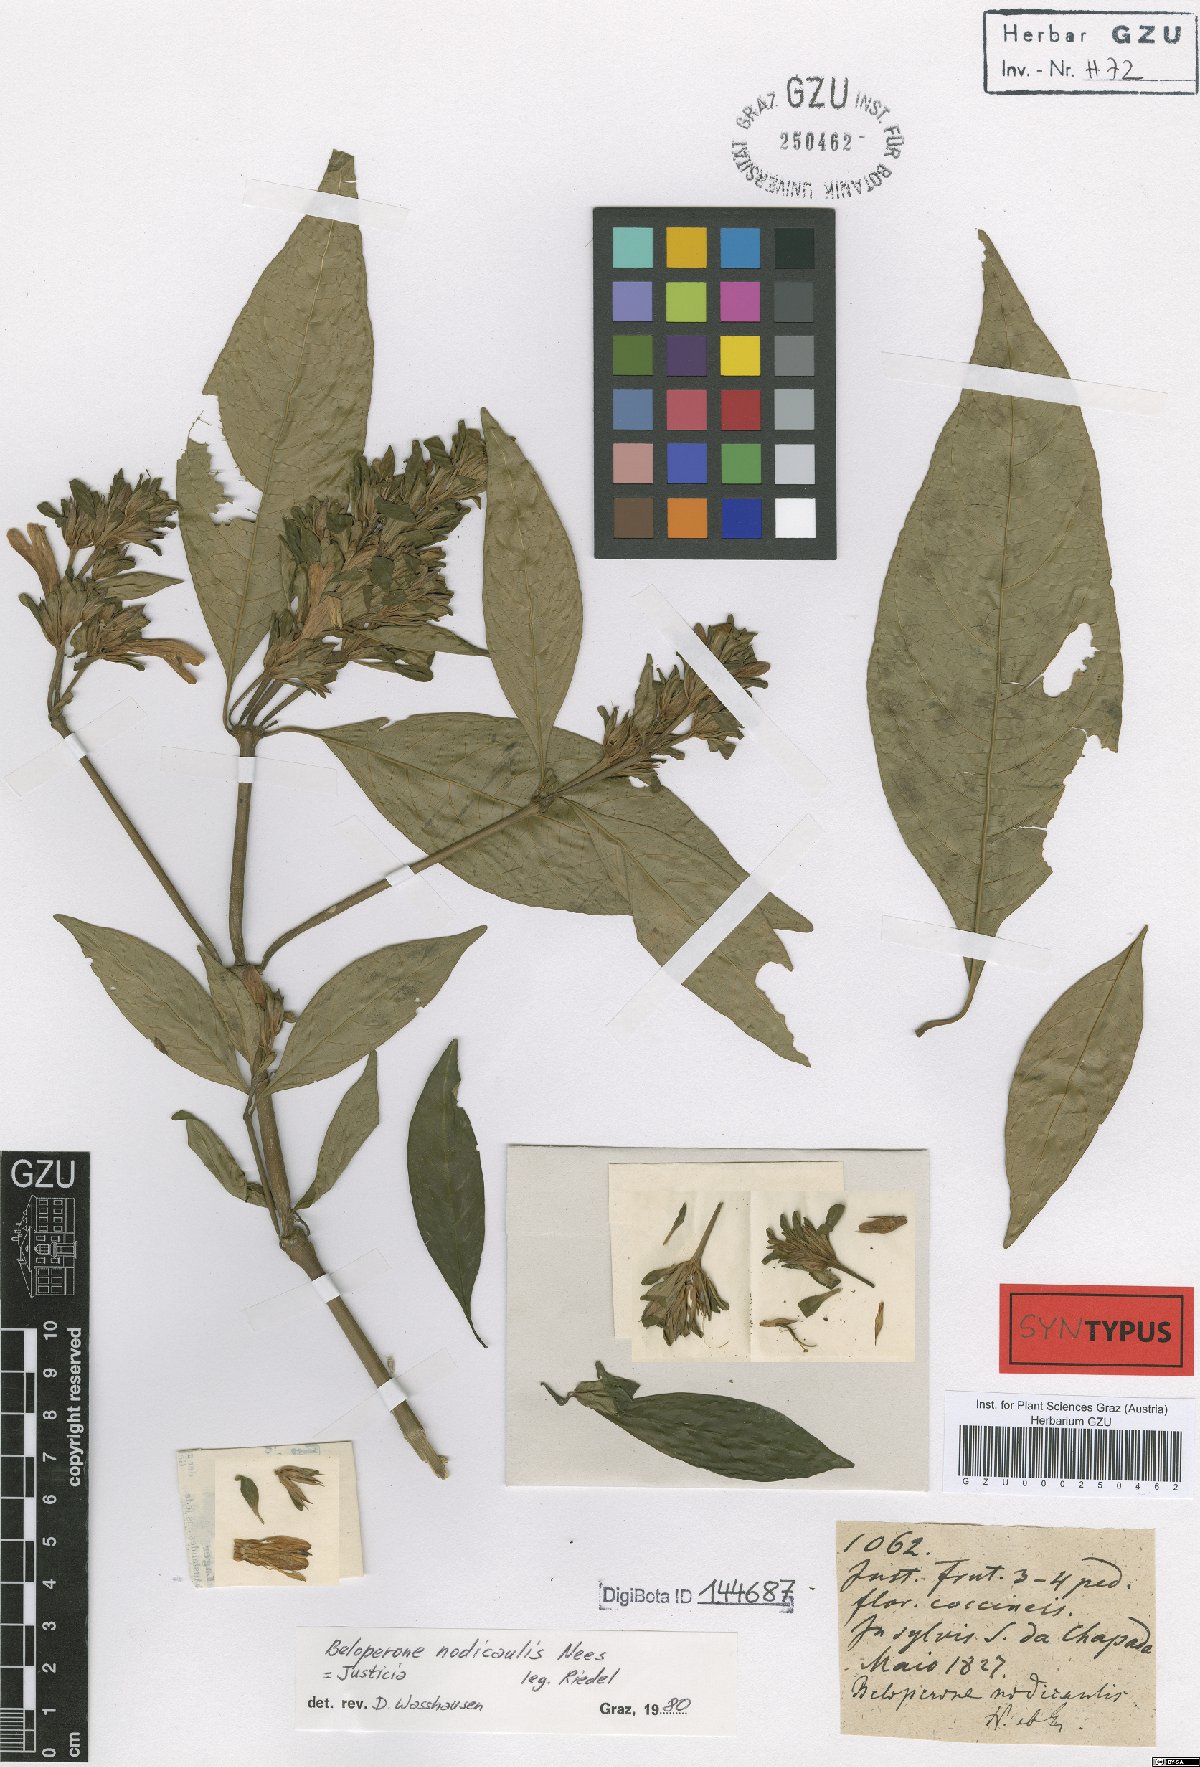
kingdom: Plantae
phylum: Tracheophyta
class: Magnoliopsida
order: Lamiales
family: Acanthaceae
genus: Justicia
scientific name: Justicia nodicaulis
